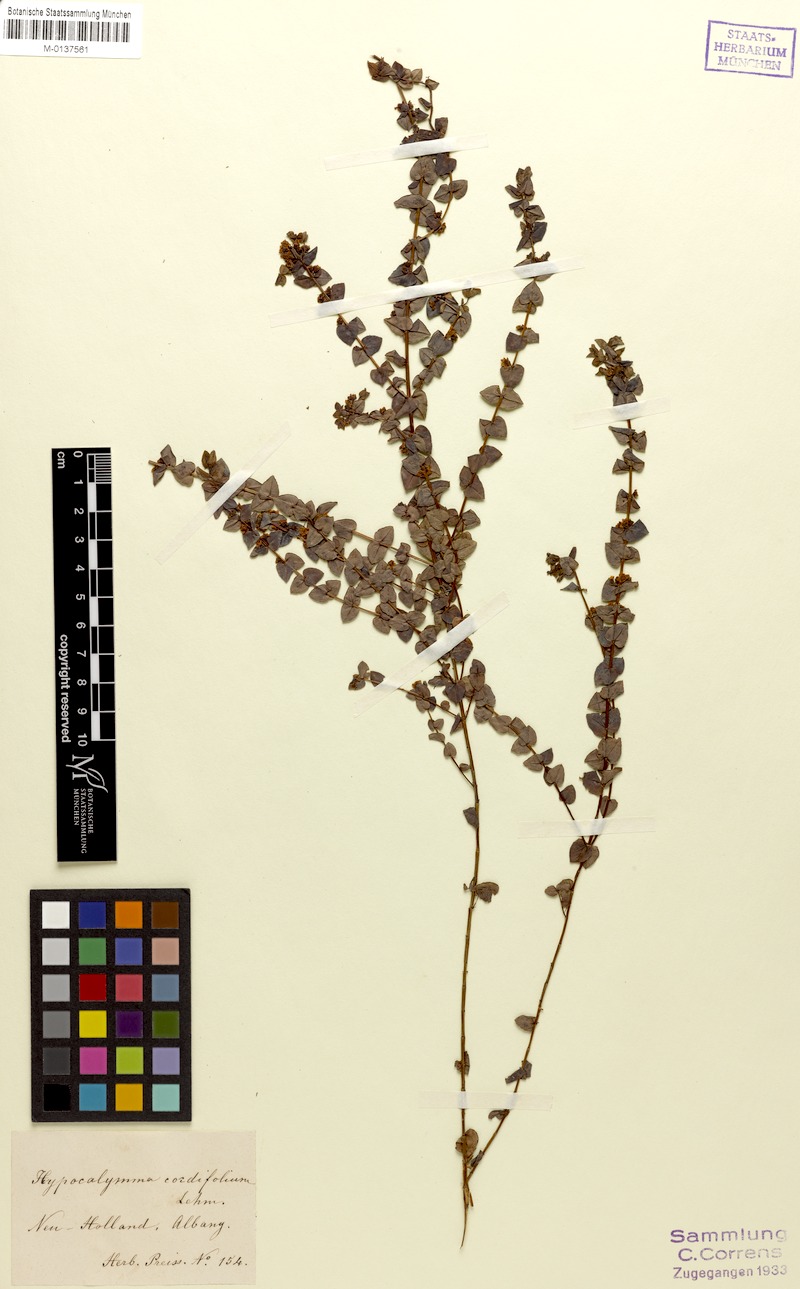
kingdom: Plantae
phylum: Tracheophyta
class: Magnoliopsida
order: Myrtales
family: Myrtaceae
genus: Hypocalymma
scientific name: Hypocalymma cordifolium
